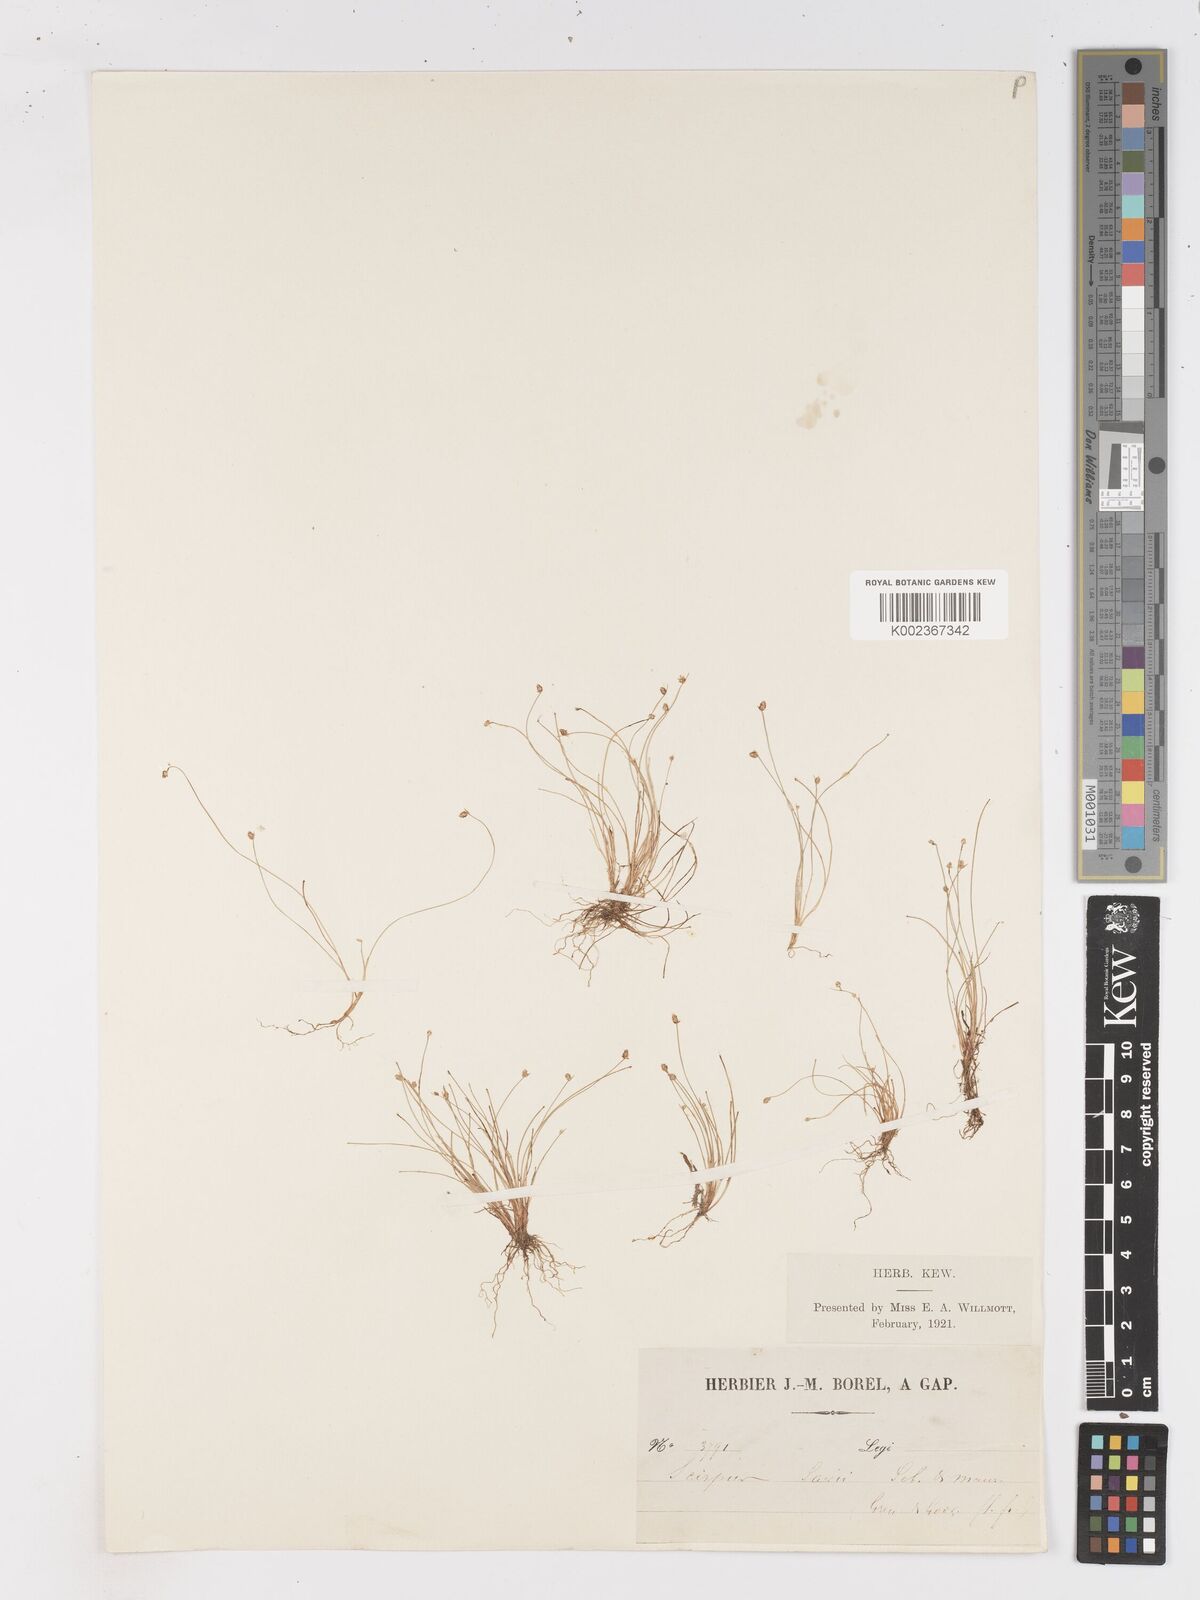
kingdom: Plantae
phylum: Tracheophyta
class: Liliopsida
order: Poales
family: Cyperaceae
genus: Isolepis
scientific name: Isolepis cernua
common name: Slender club-rush
